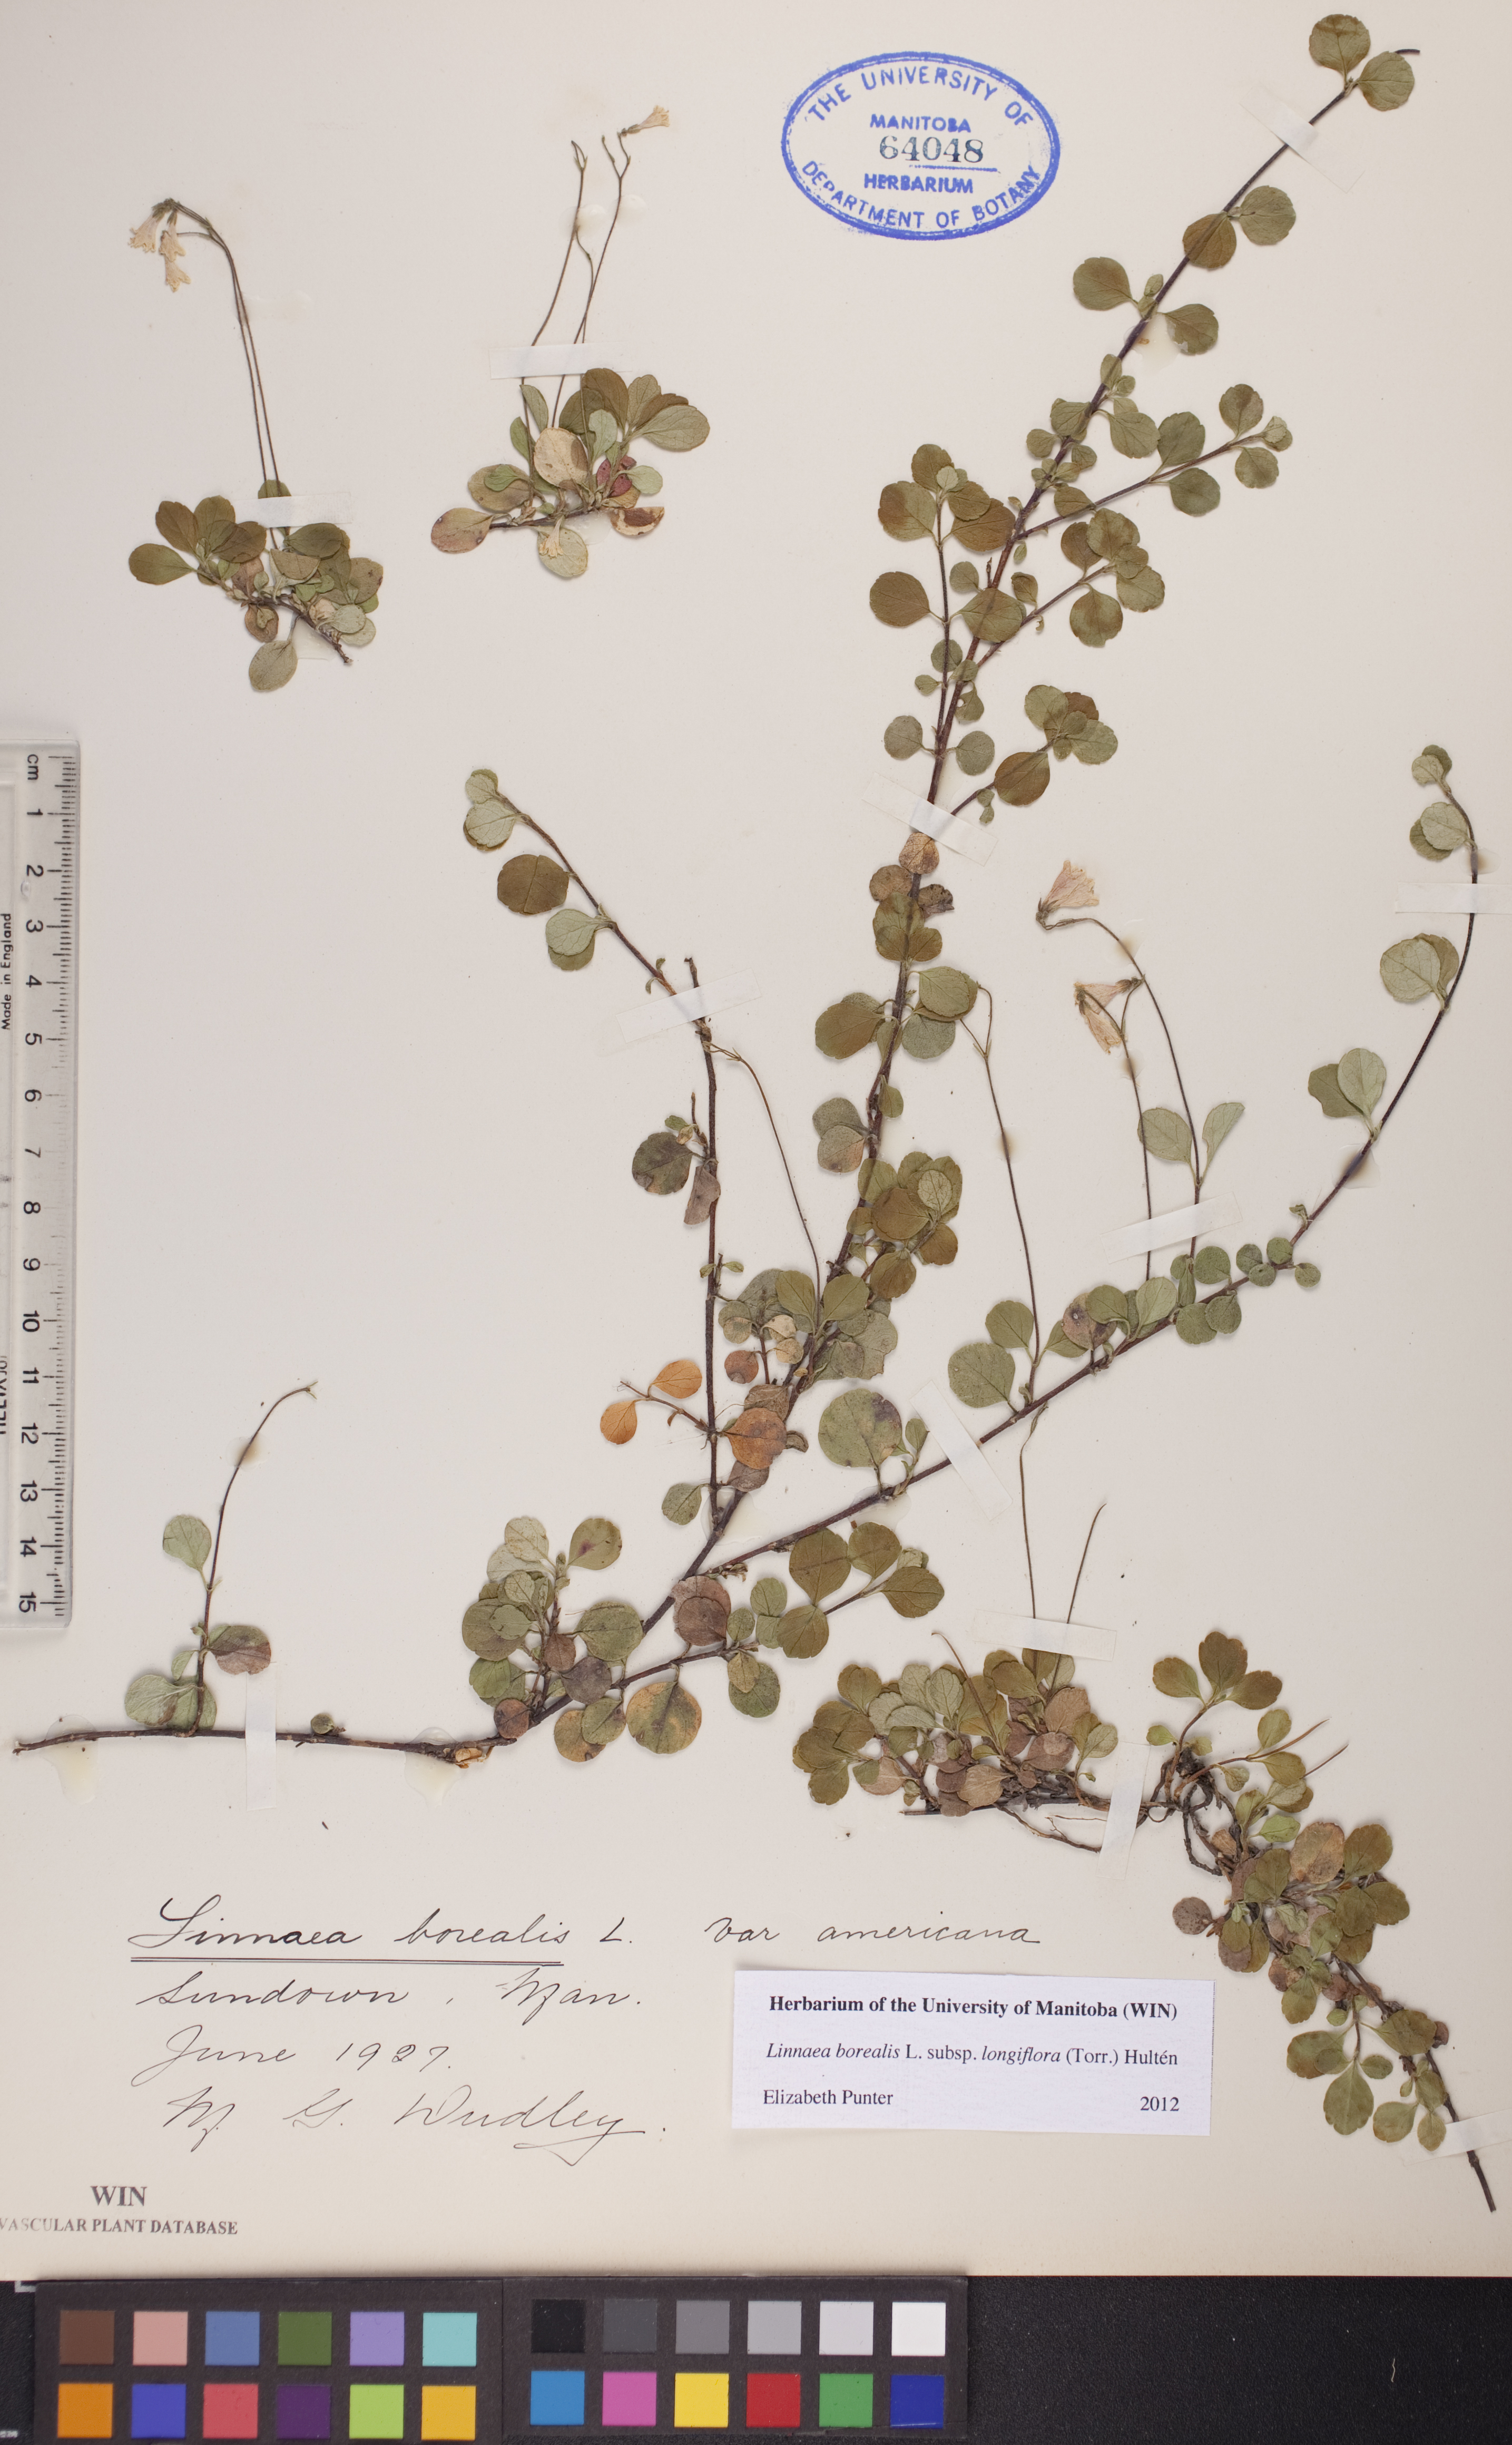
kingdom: Plantae
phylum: Tracheophyta
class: Magnoliopsida
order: Dipsacales
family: Caprifoliaceae
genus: Linnaea
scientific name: Linnaea borealis
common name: Twinflower
